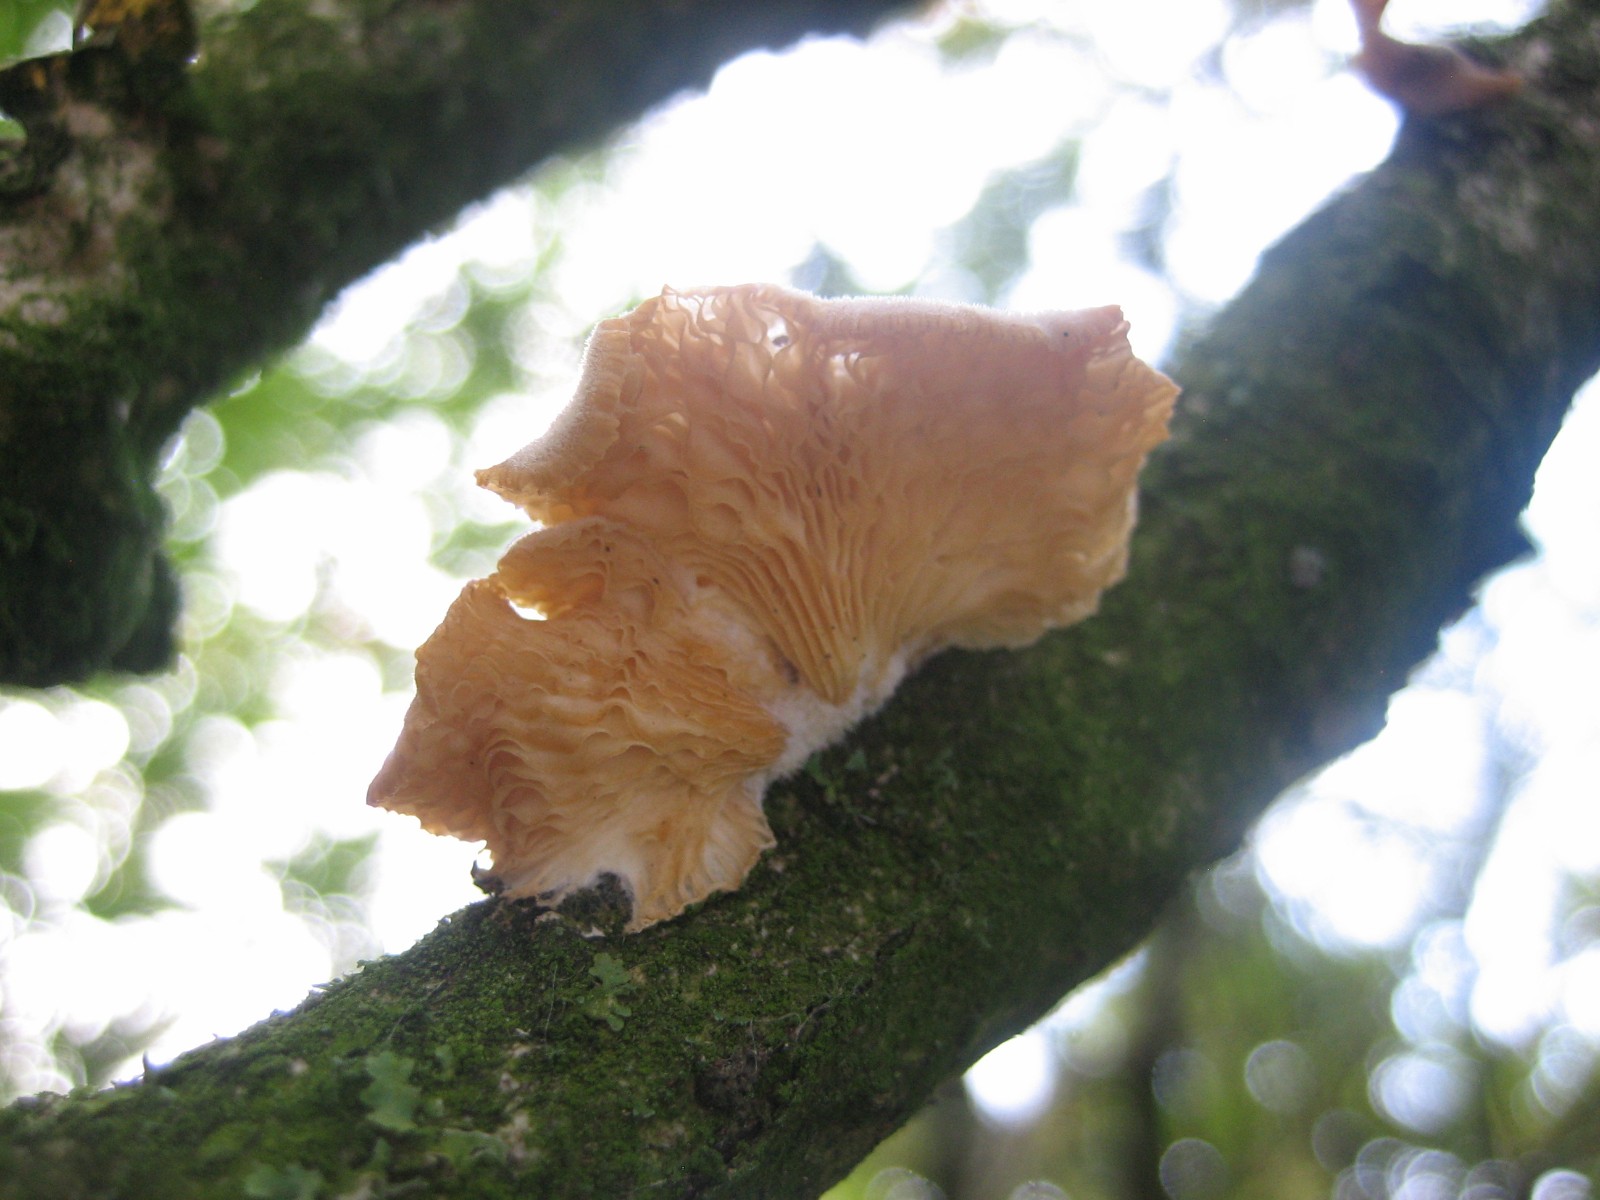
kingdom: Fungi
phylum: Basidiomycota
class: Agaricomycetes
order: Agaricales
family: Pleurotaceae
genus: Hohenbuehelia
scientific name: Hohenbuehelia
